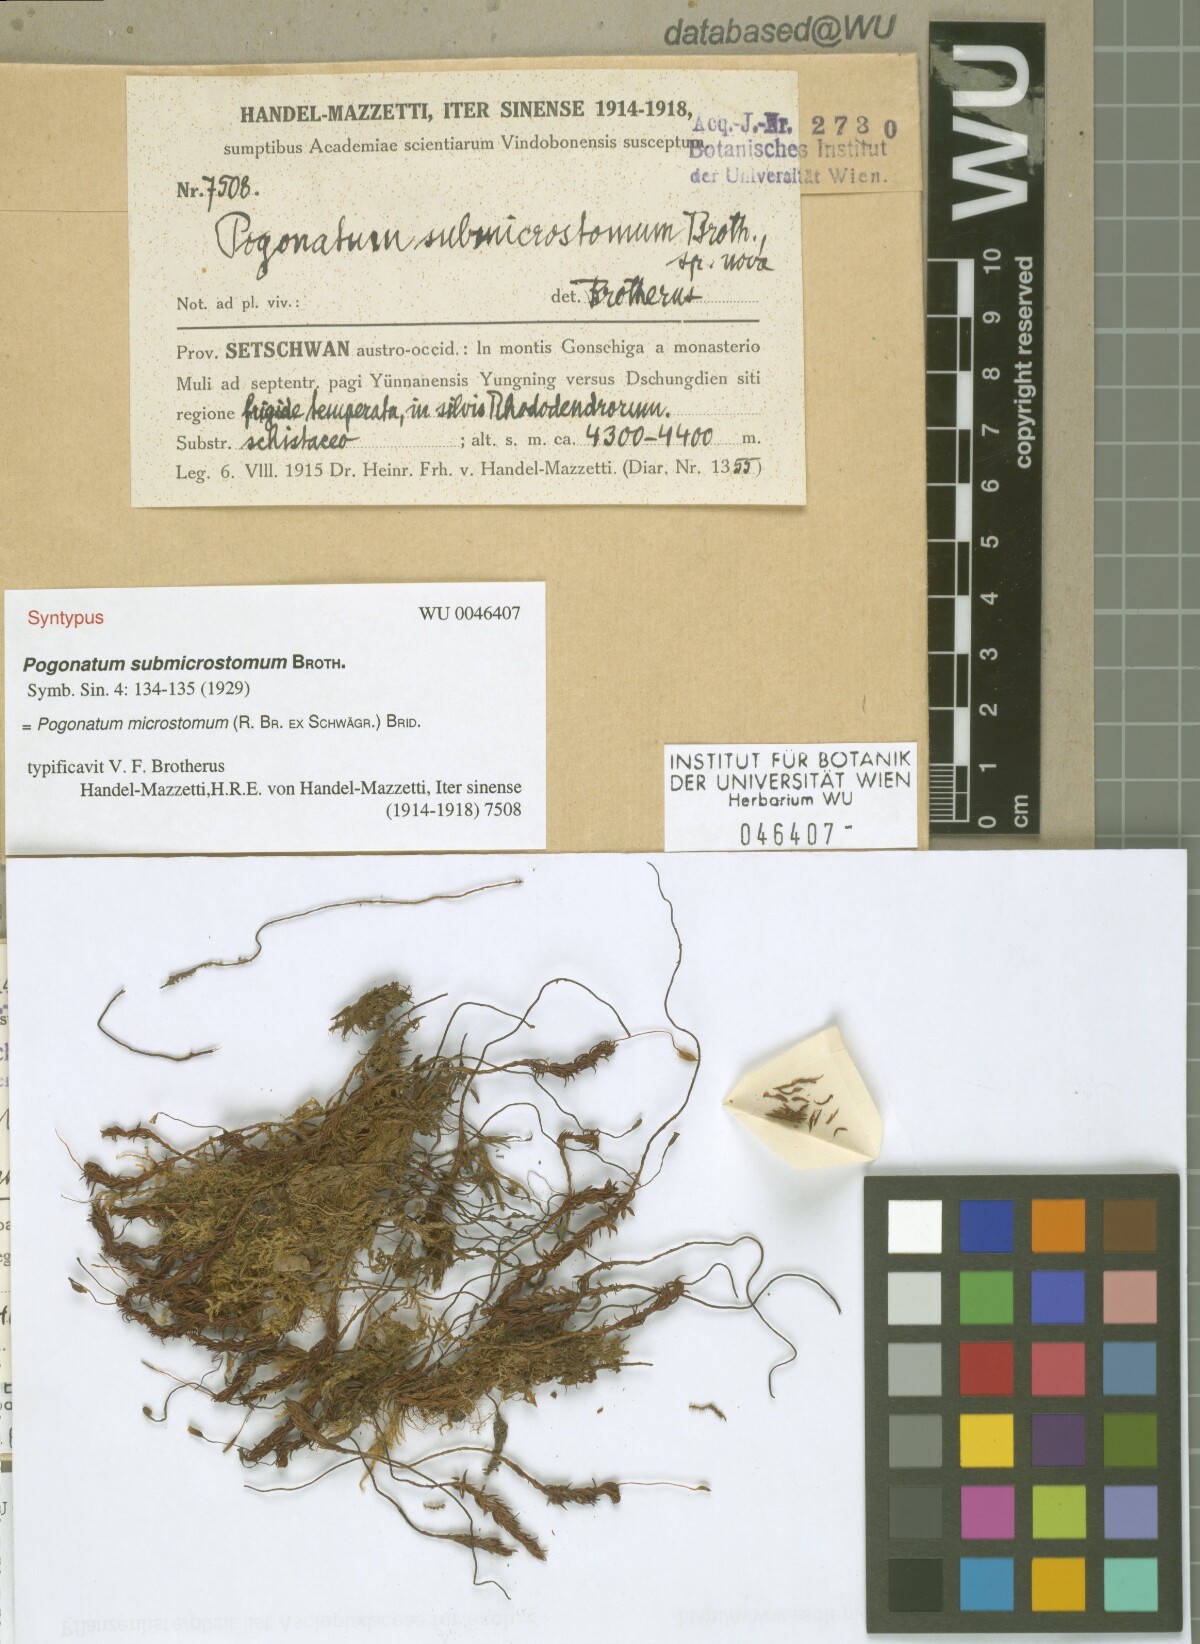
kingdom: Plantae
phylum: Bryophyta
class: Polytrichopsida
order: Polytrichales
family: Polytrichaceae
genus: Pogonatum
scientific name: Pogonatum microstomum
